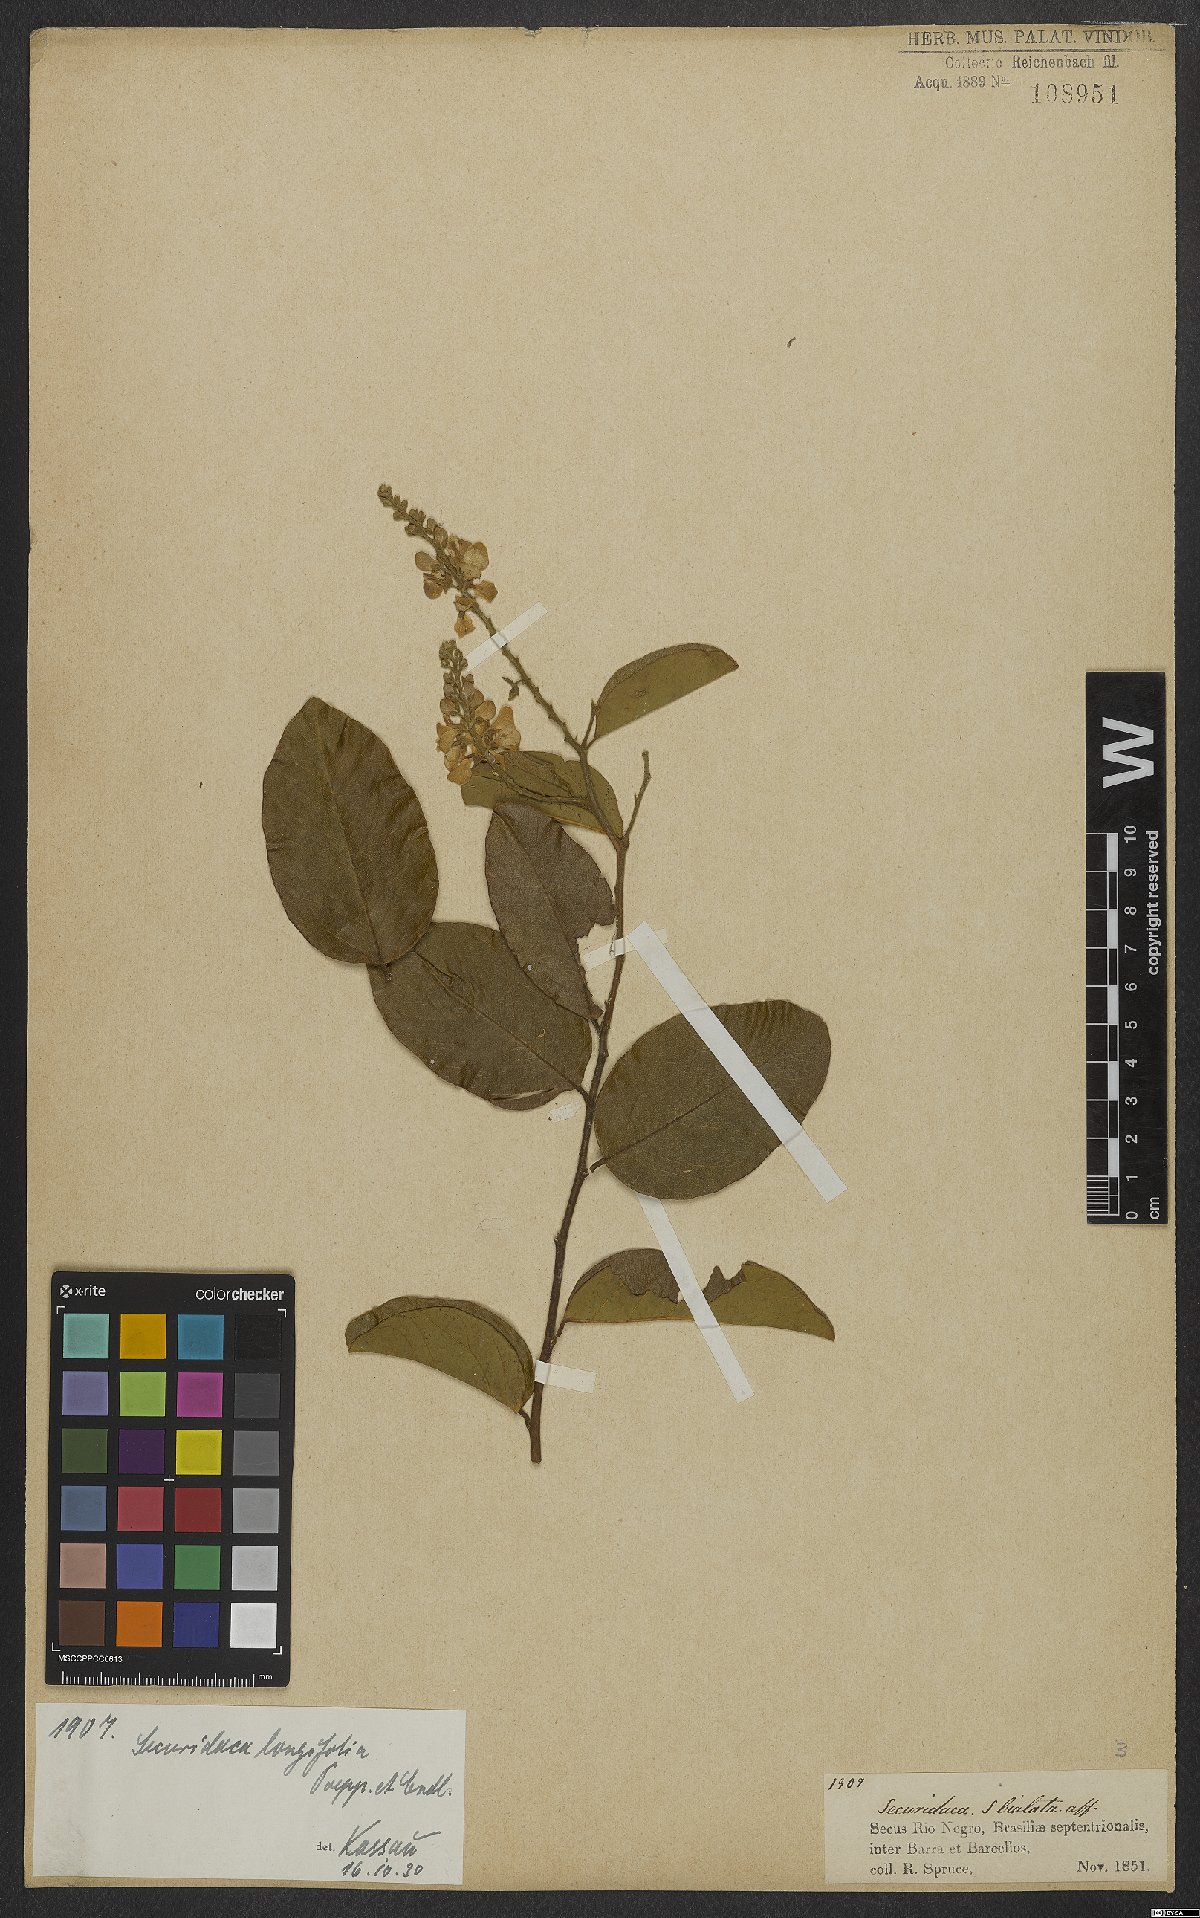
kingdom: Plantae
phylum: Tracheophyta
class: Magnoliopsida
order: Fabales
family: Polygalaceae
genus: Securidaca
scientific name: Securidaca longifolia
